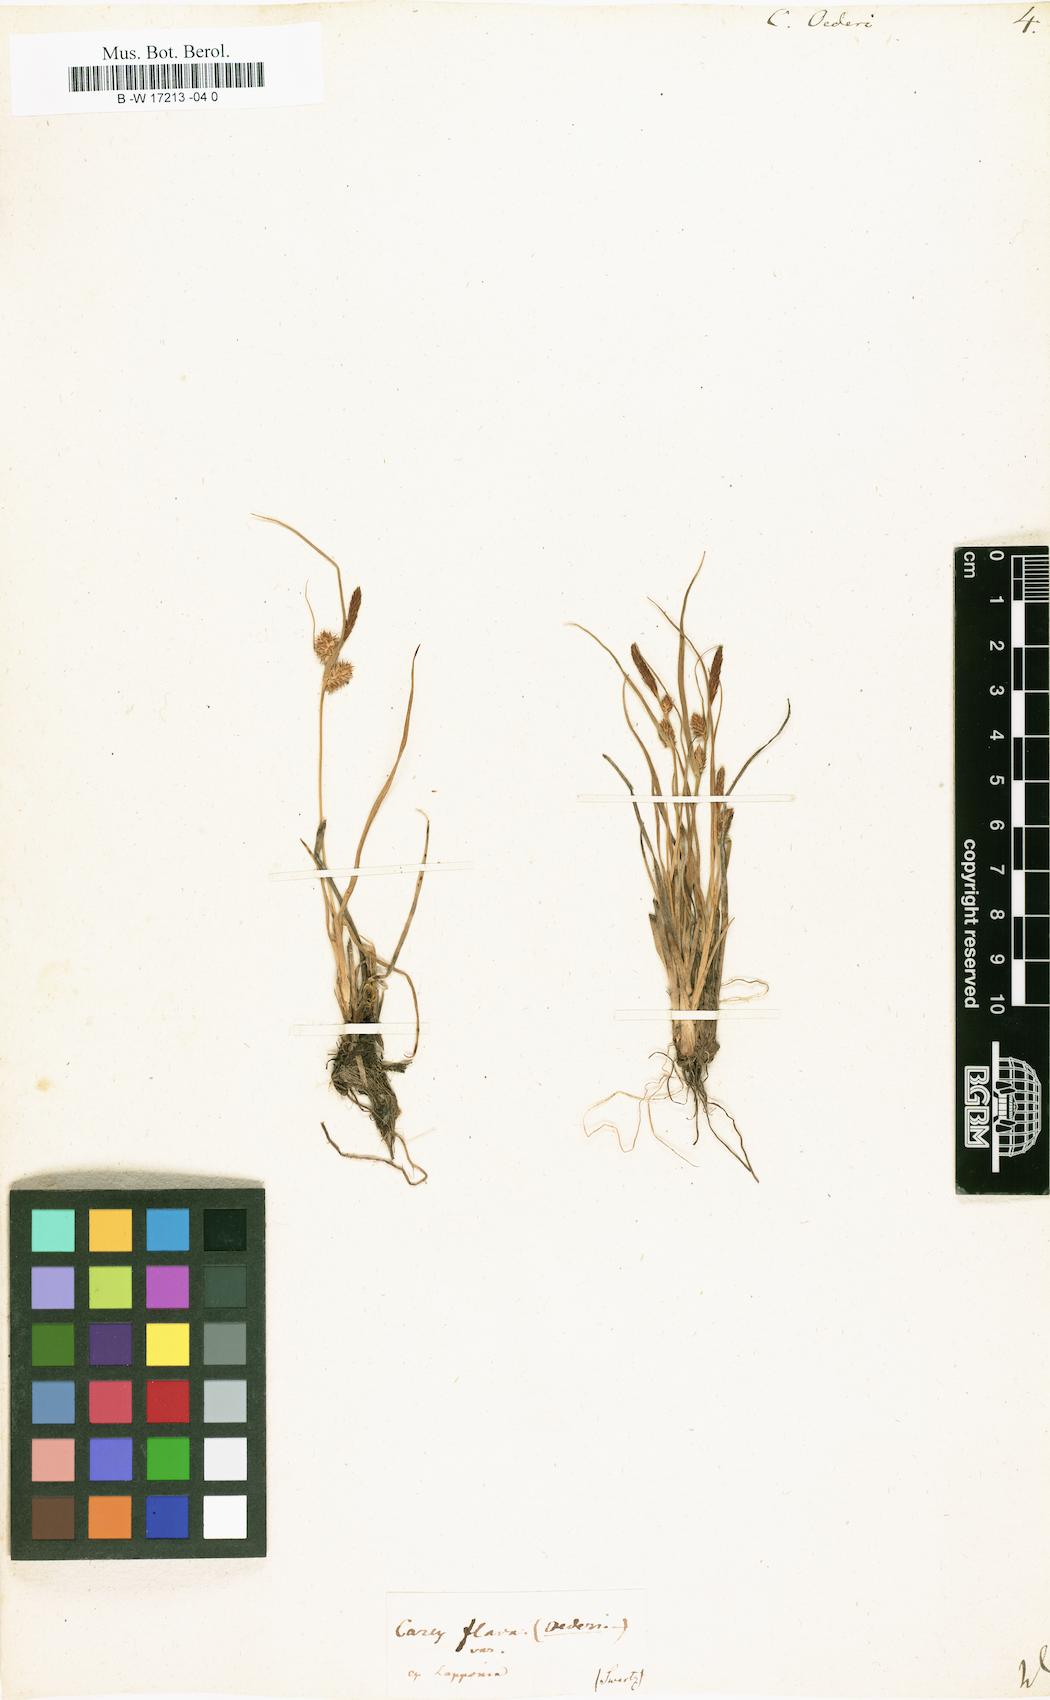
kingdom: Plantae
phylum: Tracheophyta
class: Liliopsida
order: Poales
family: Cyperaceae
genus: Carex
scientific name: Carex oederi
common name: Common & small-fruited yellow-sedge
